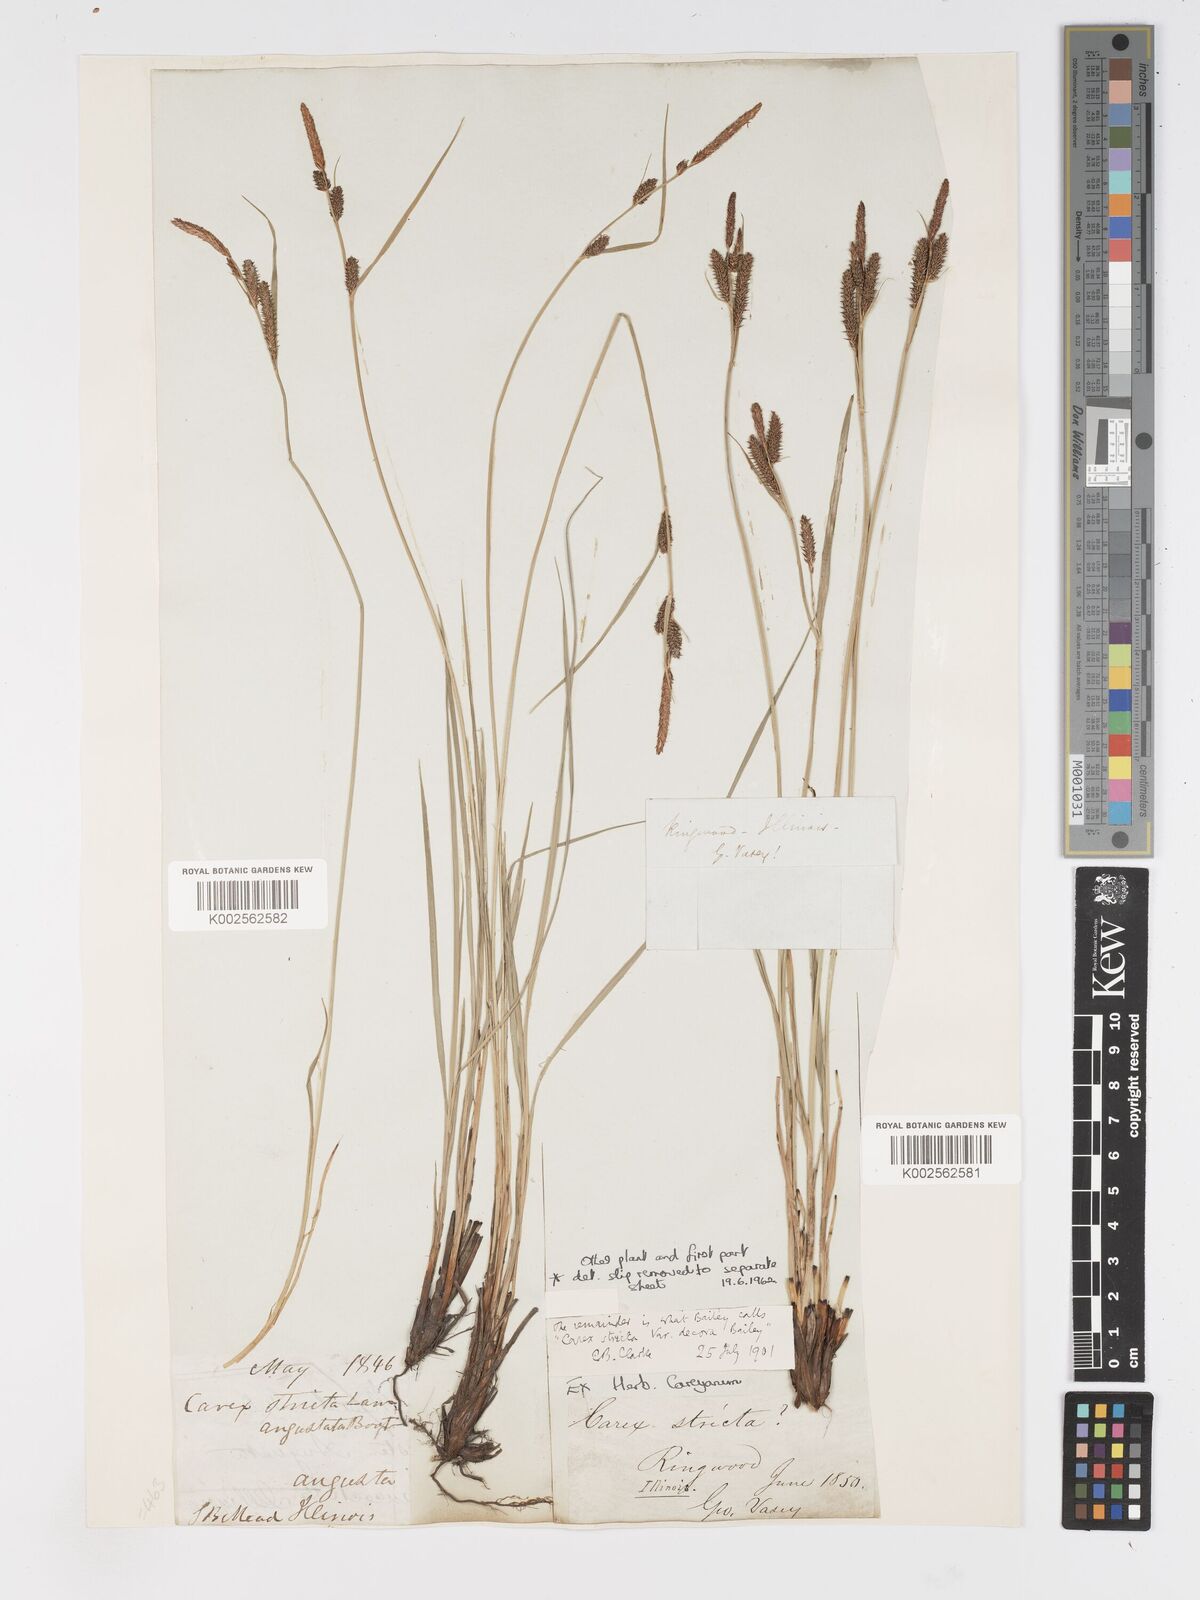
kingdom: Plantae
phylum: Tracheophyta
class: Liliopsida
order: Poales
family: Cyperaceae
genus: Carex
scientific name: Carex haydenii
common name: Hayden's sedge
